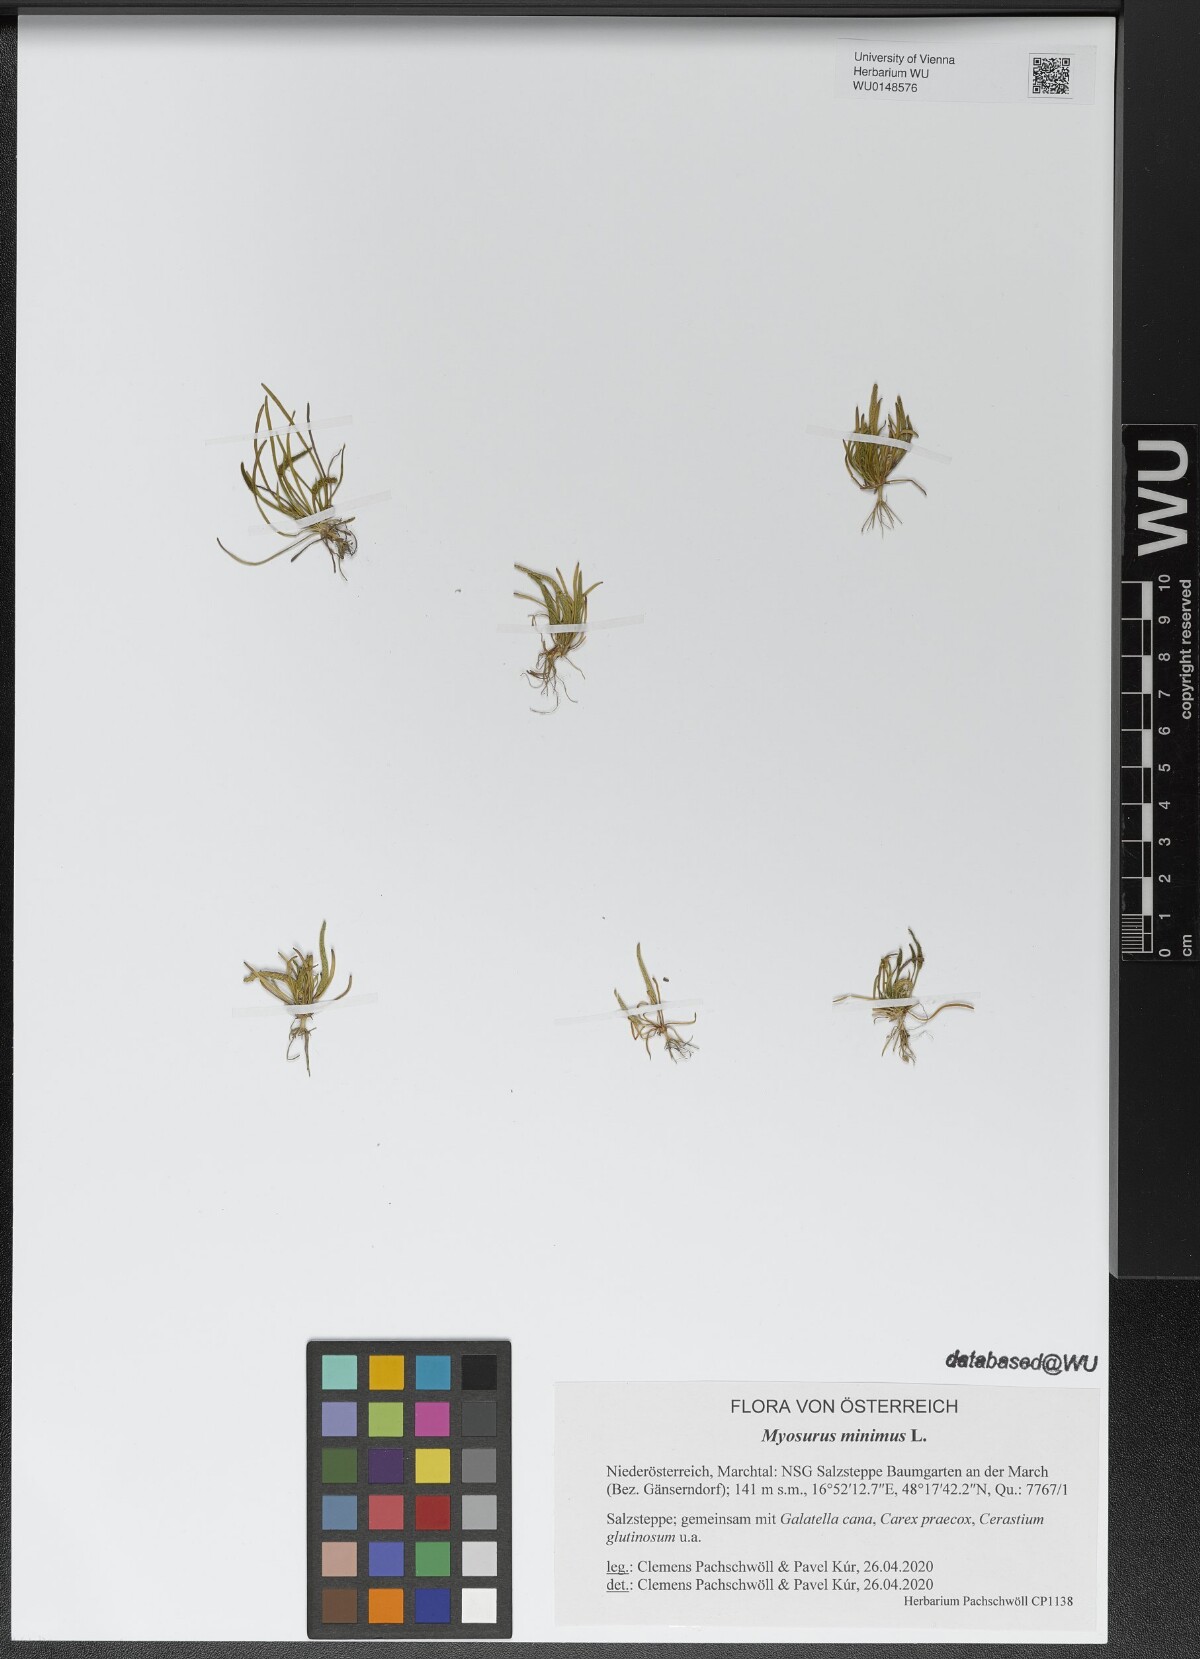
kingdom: Plantae
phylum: Tracheophyta
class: Magnoliopsida
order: Ranunculales
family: Ranunculaceae
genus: Myosurus
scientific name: Myosurus minimus
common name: Mousetail
